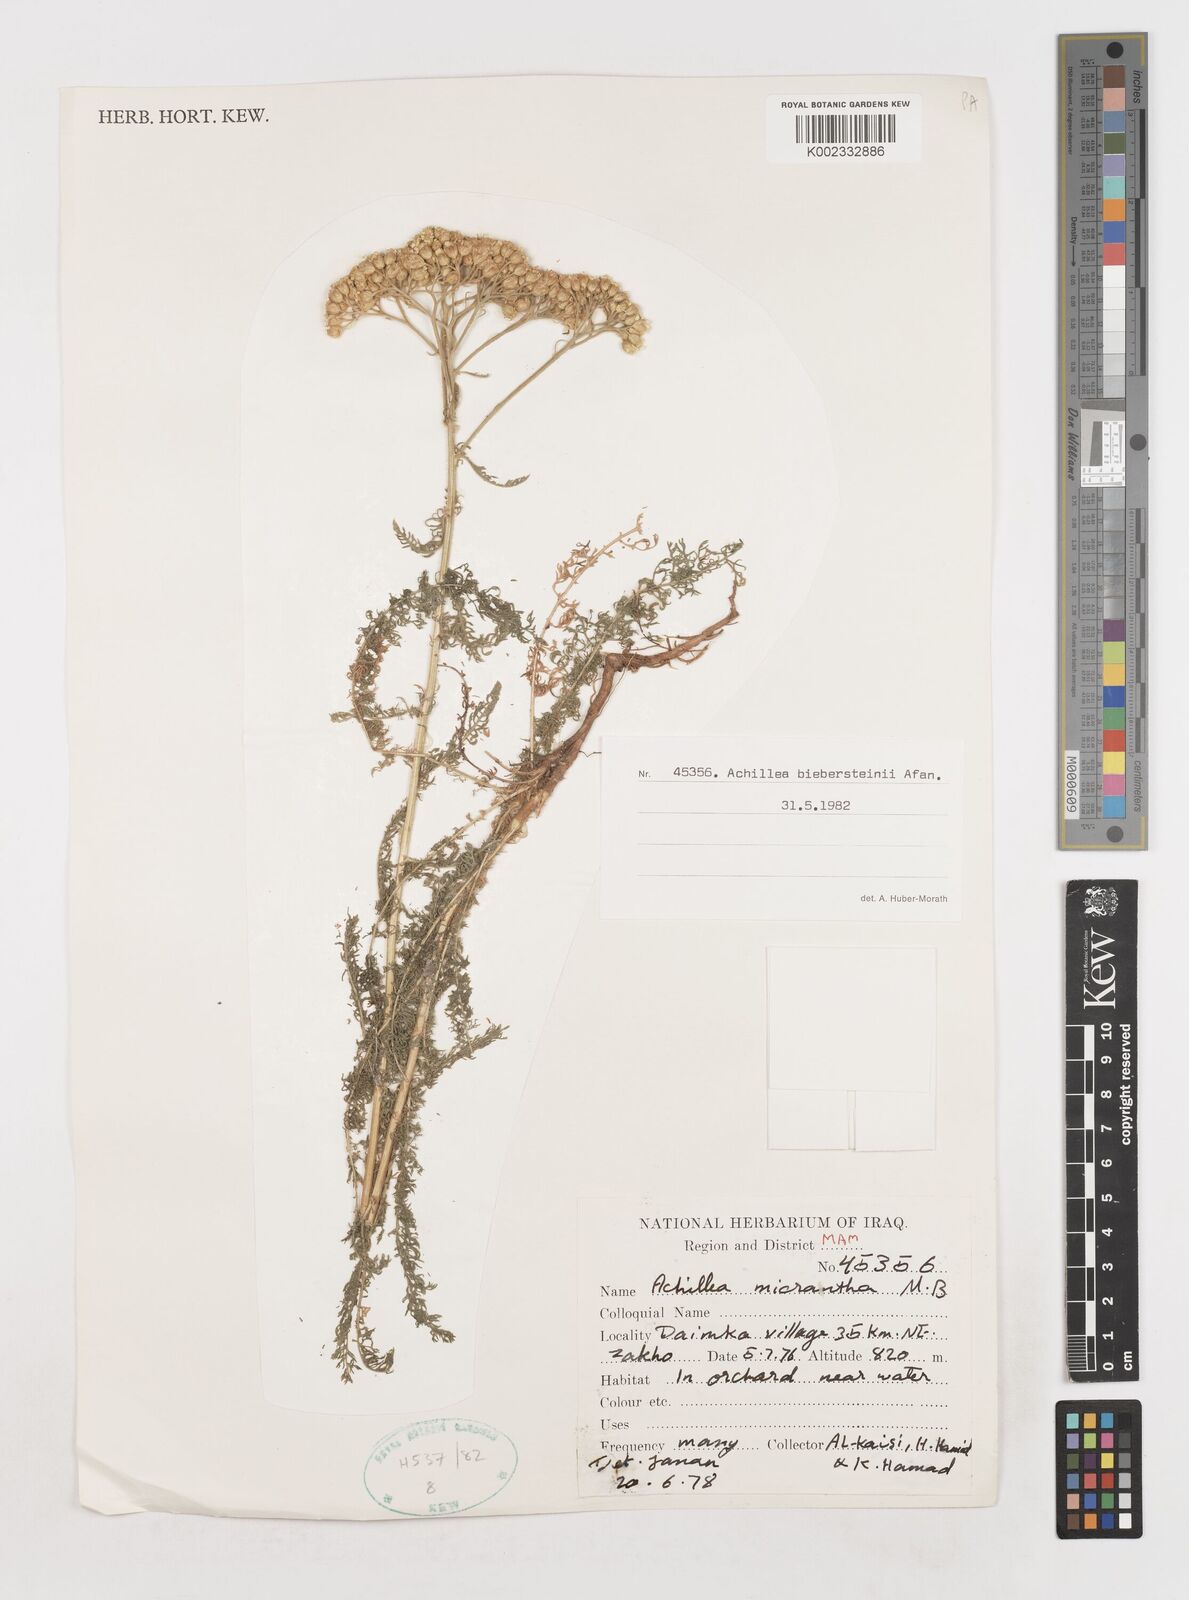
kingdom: Plantae
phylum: Tracheophyta
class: Magnoliopsida
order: Asterales
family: Asteraceae
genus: Achillea
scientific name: Achillea arabica
